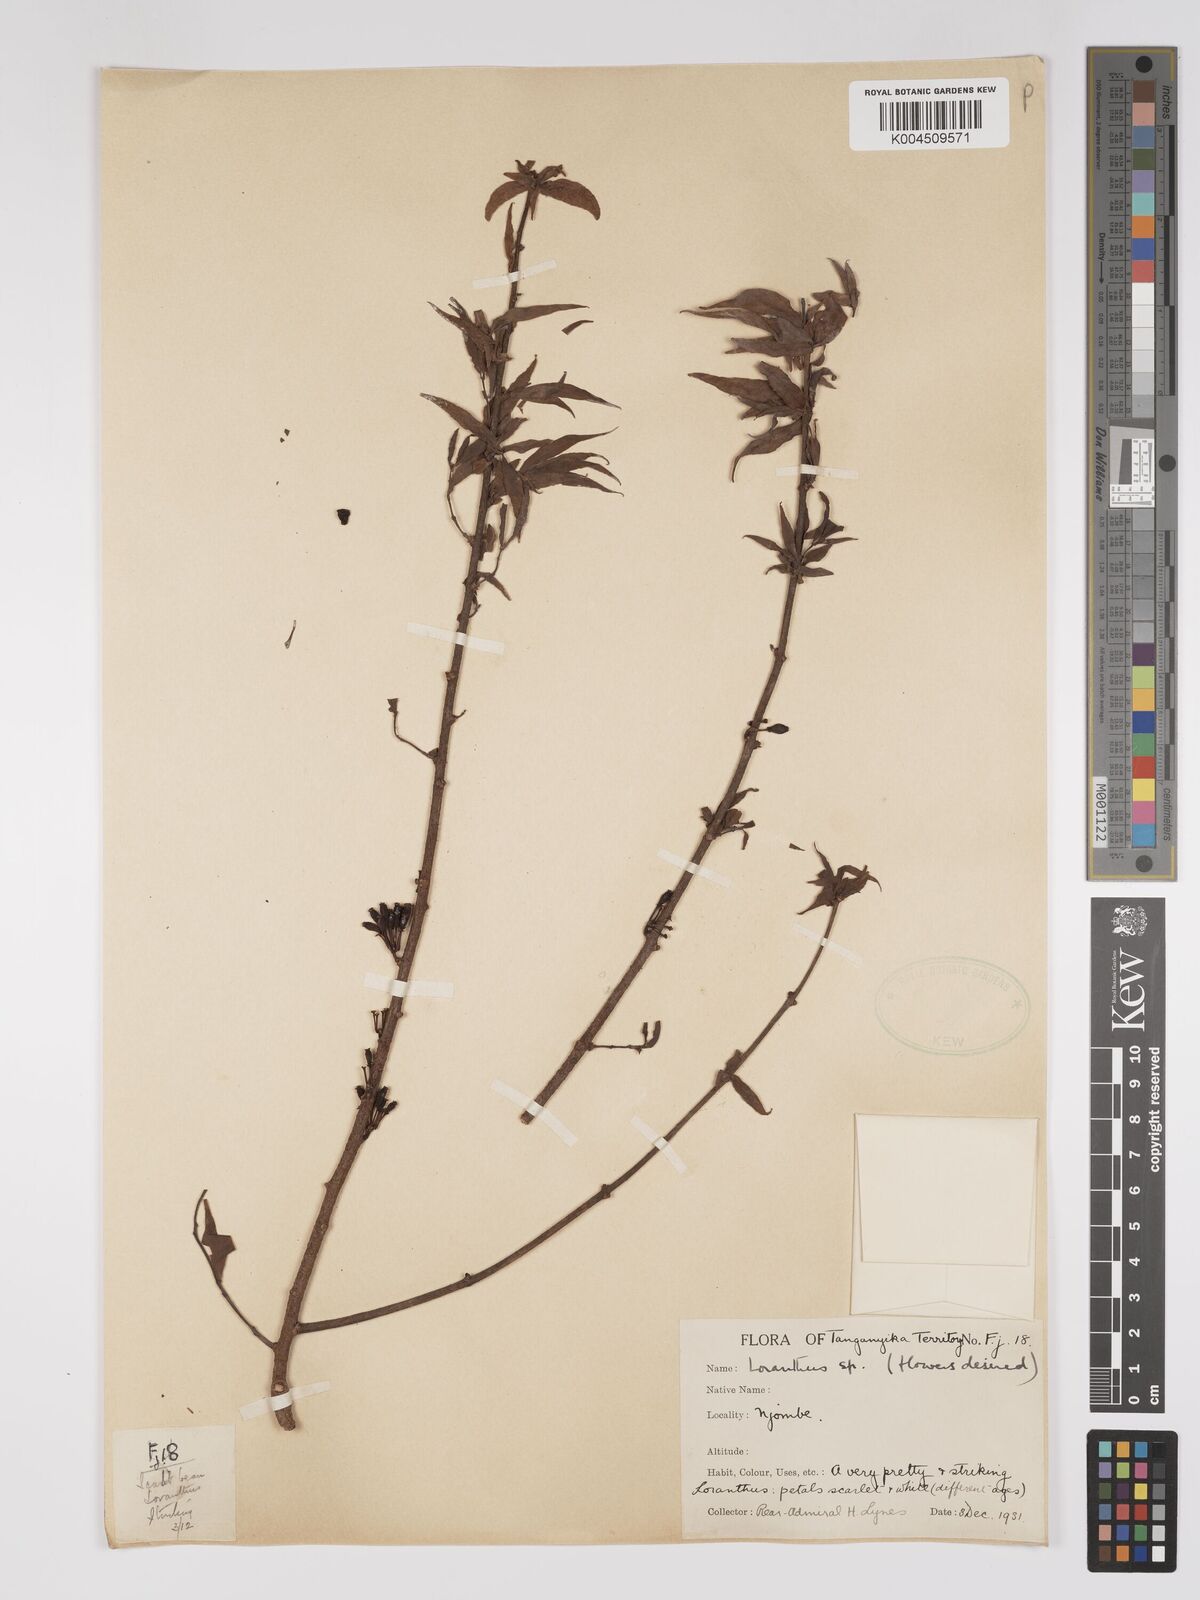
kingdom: Plantae
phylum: Tracheophyta
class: Magnoliopsida
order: Santalales
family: Loranthaceae
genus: Englerina
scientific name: Englerina inaequilatera
